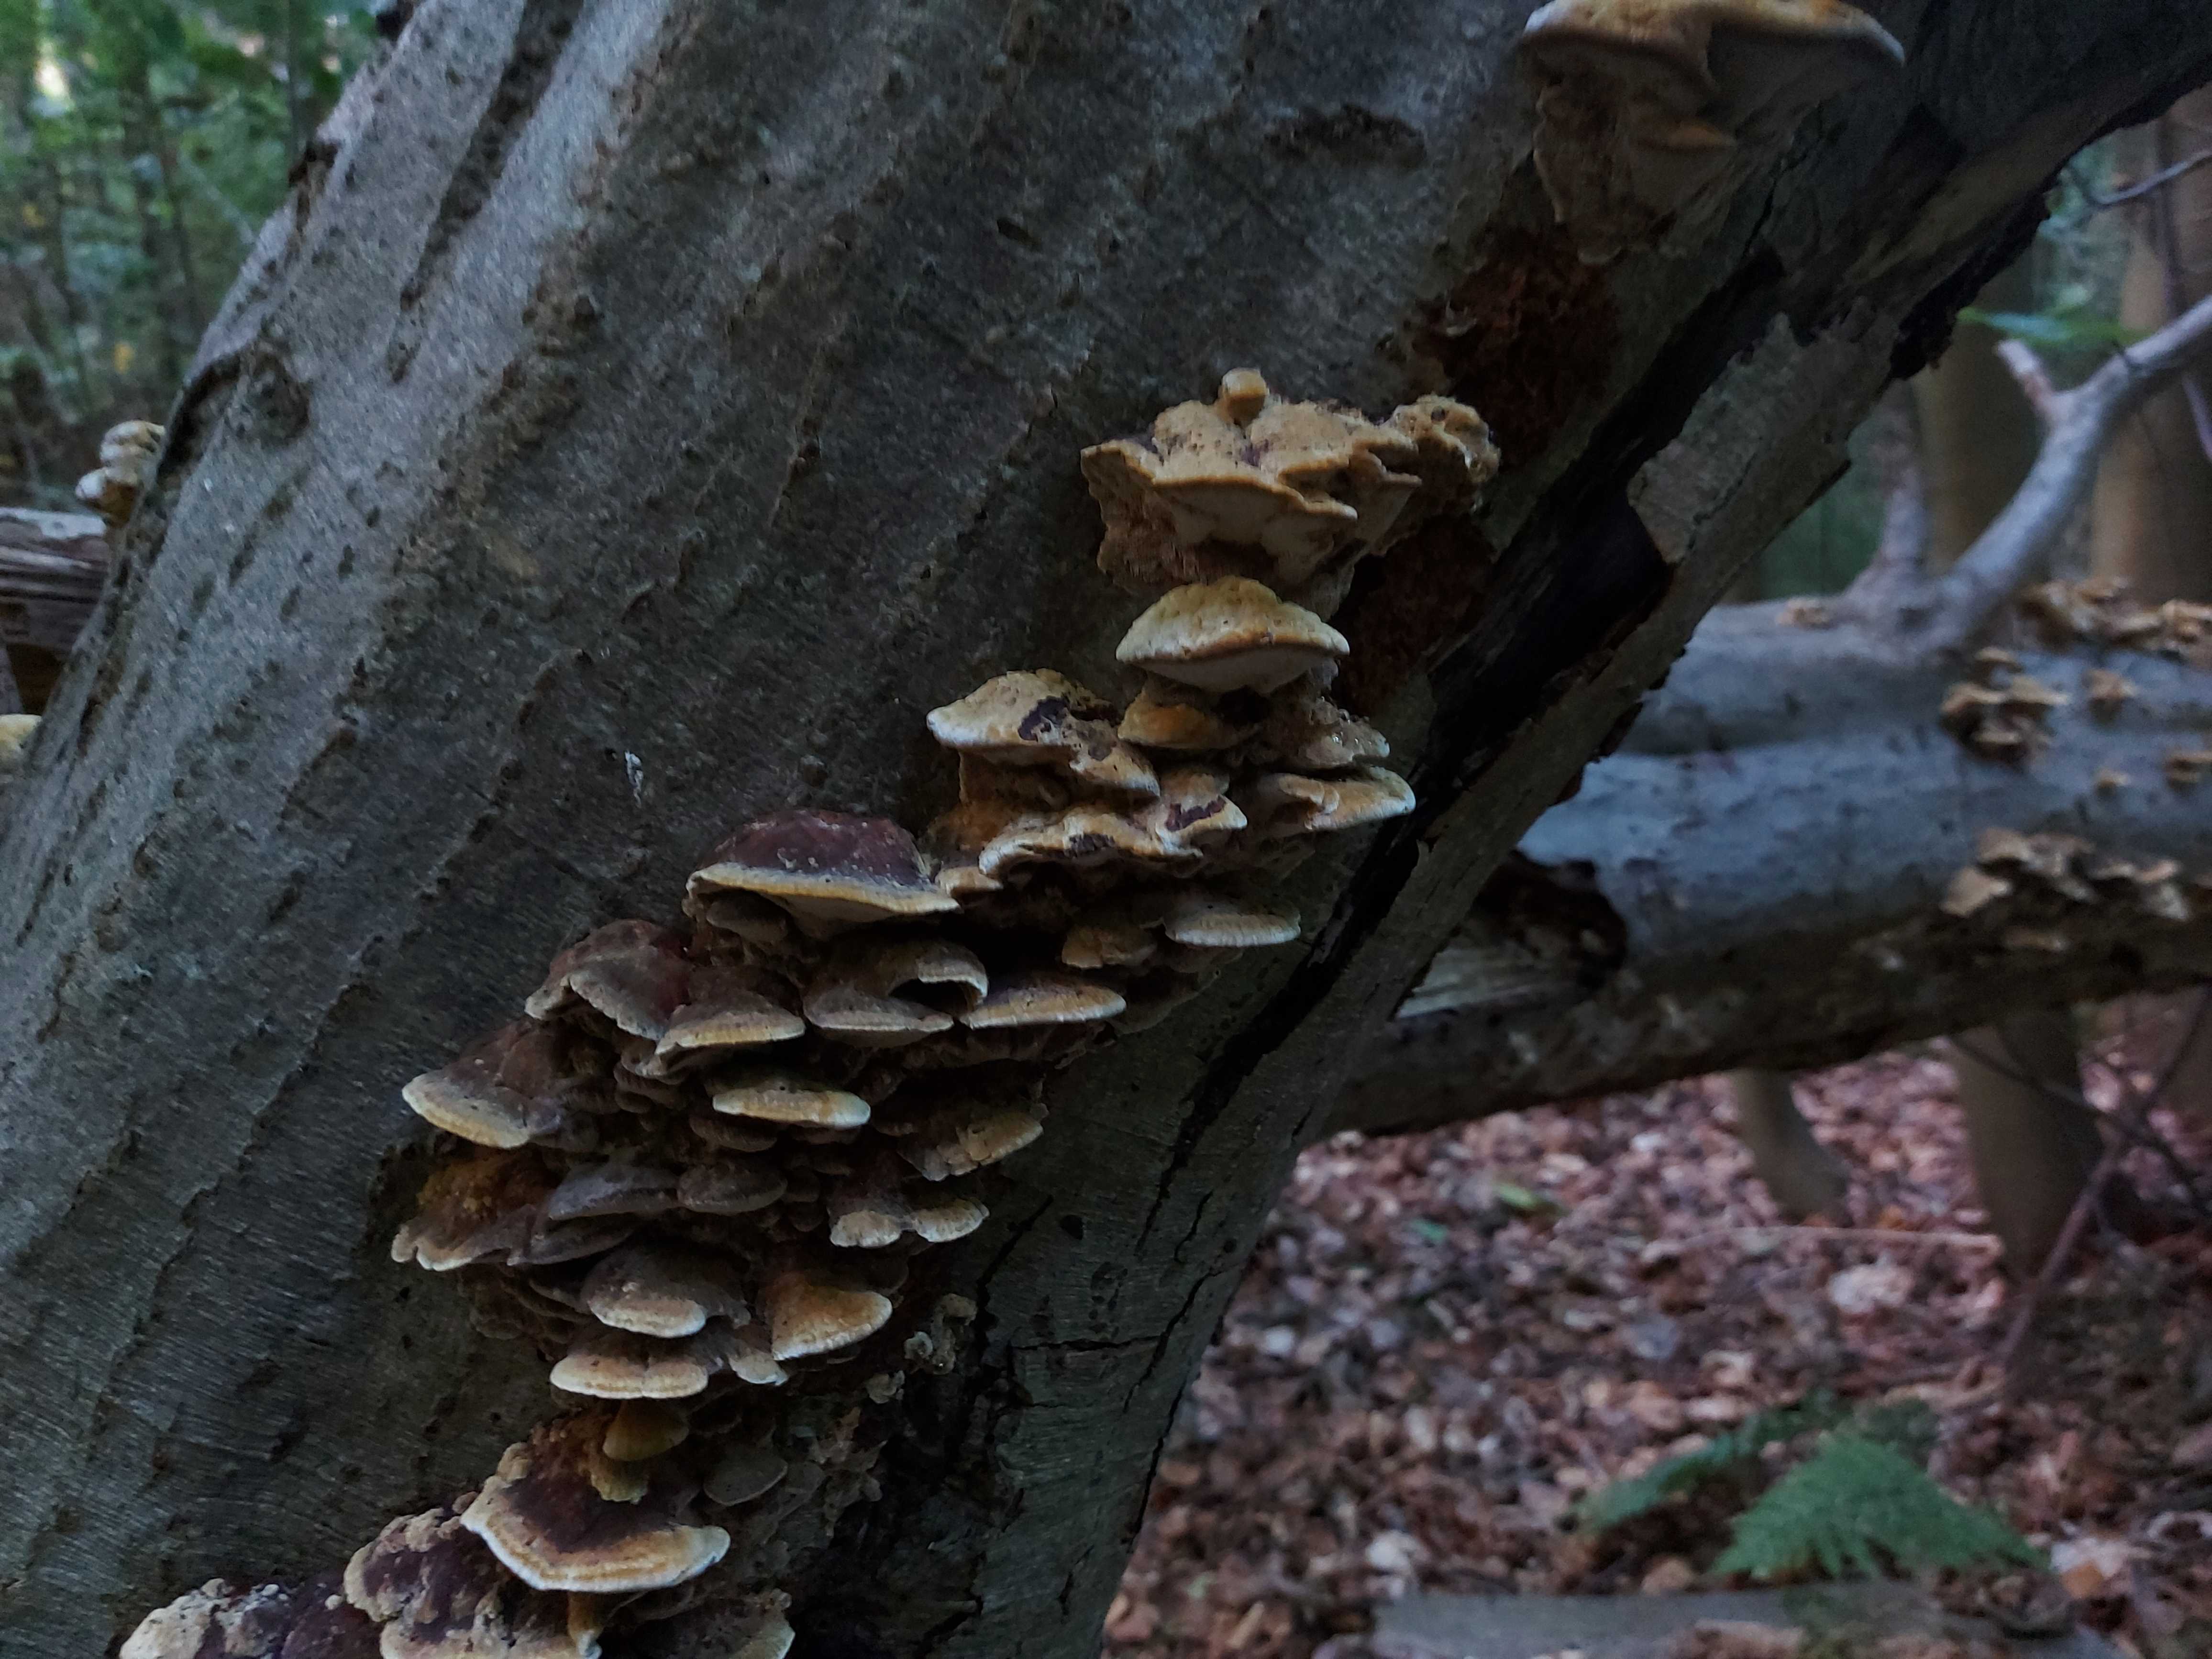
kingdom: Fungi
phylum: Basidiomycota
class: Agaricomycetes
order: Hymenochaetales
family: Hymenochaetaceae
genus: Xanthoporia
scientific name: Xanthoporia radiata
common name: elle-spejlporesvamp
